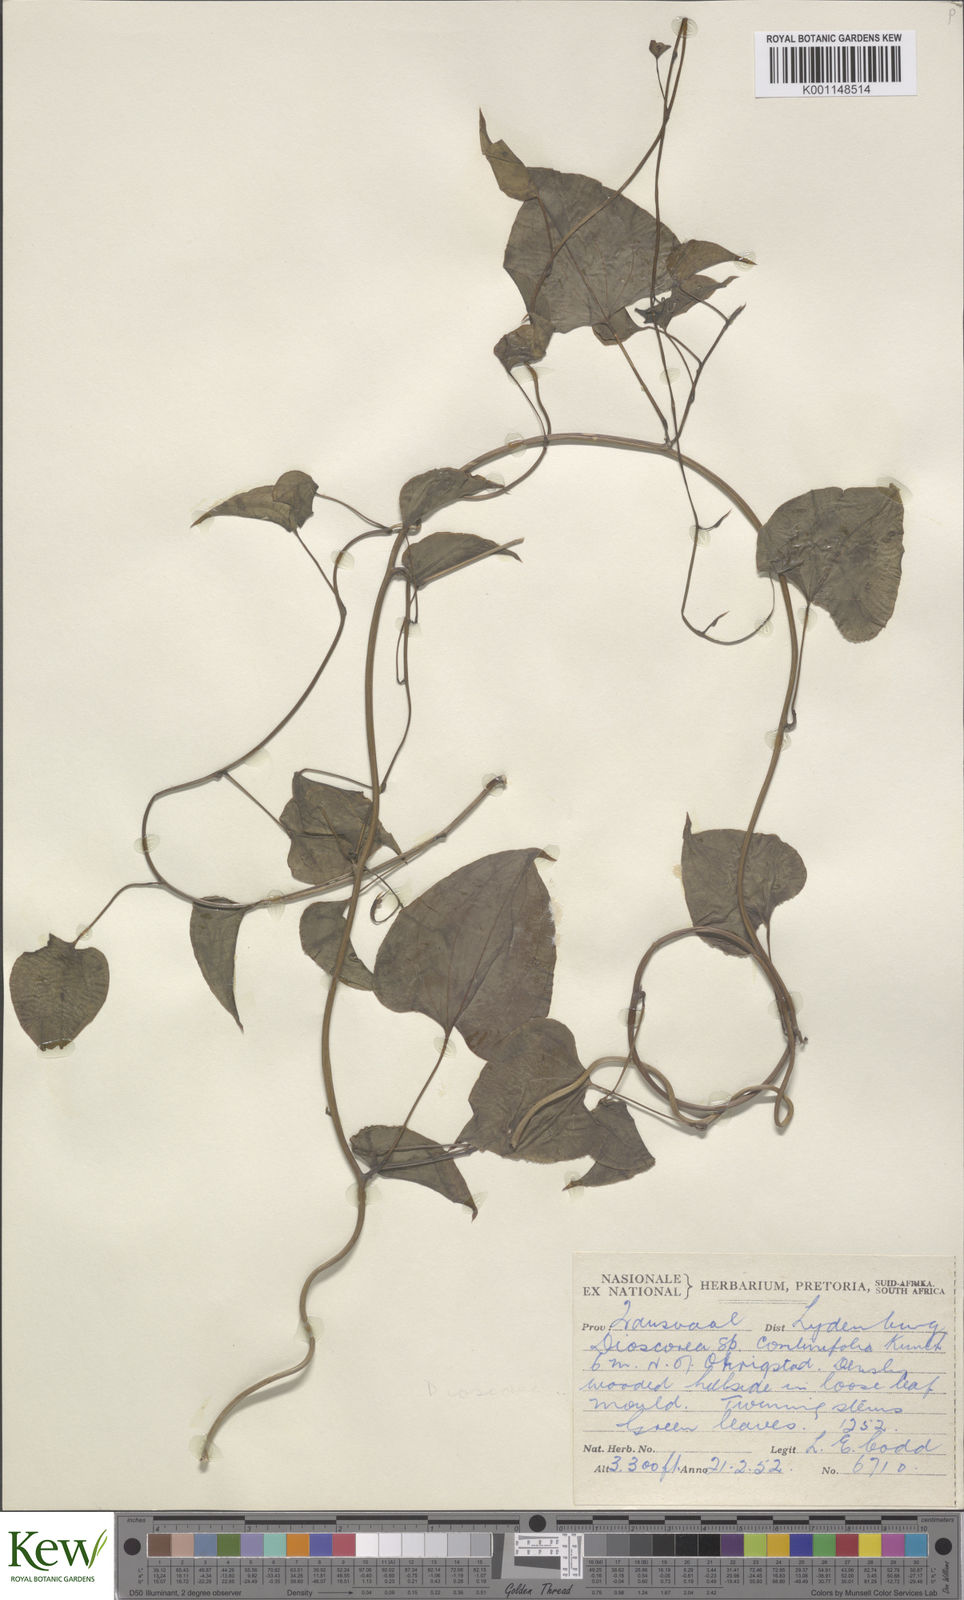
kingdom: Plantae
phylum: Tracheophyta
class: Liliopsida
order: Dioscoreales
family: Dioscoreaceae
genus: Dioscorea
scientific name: Dioscorea cotinifolia
